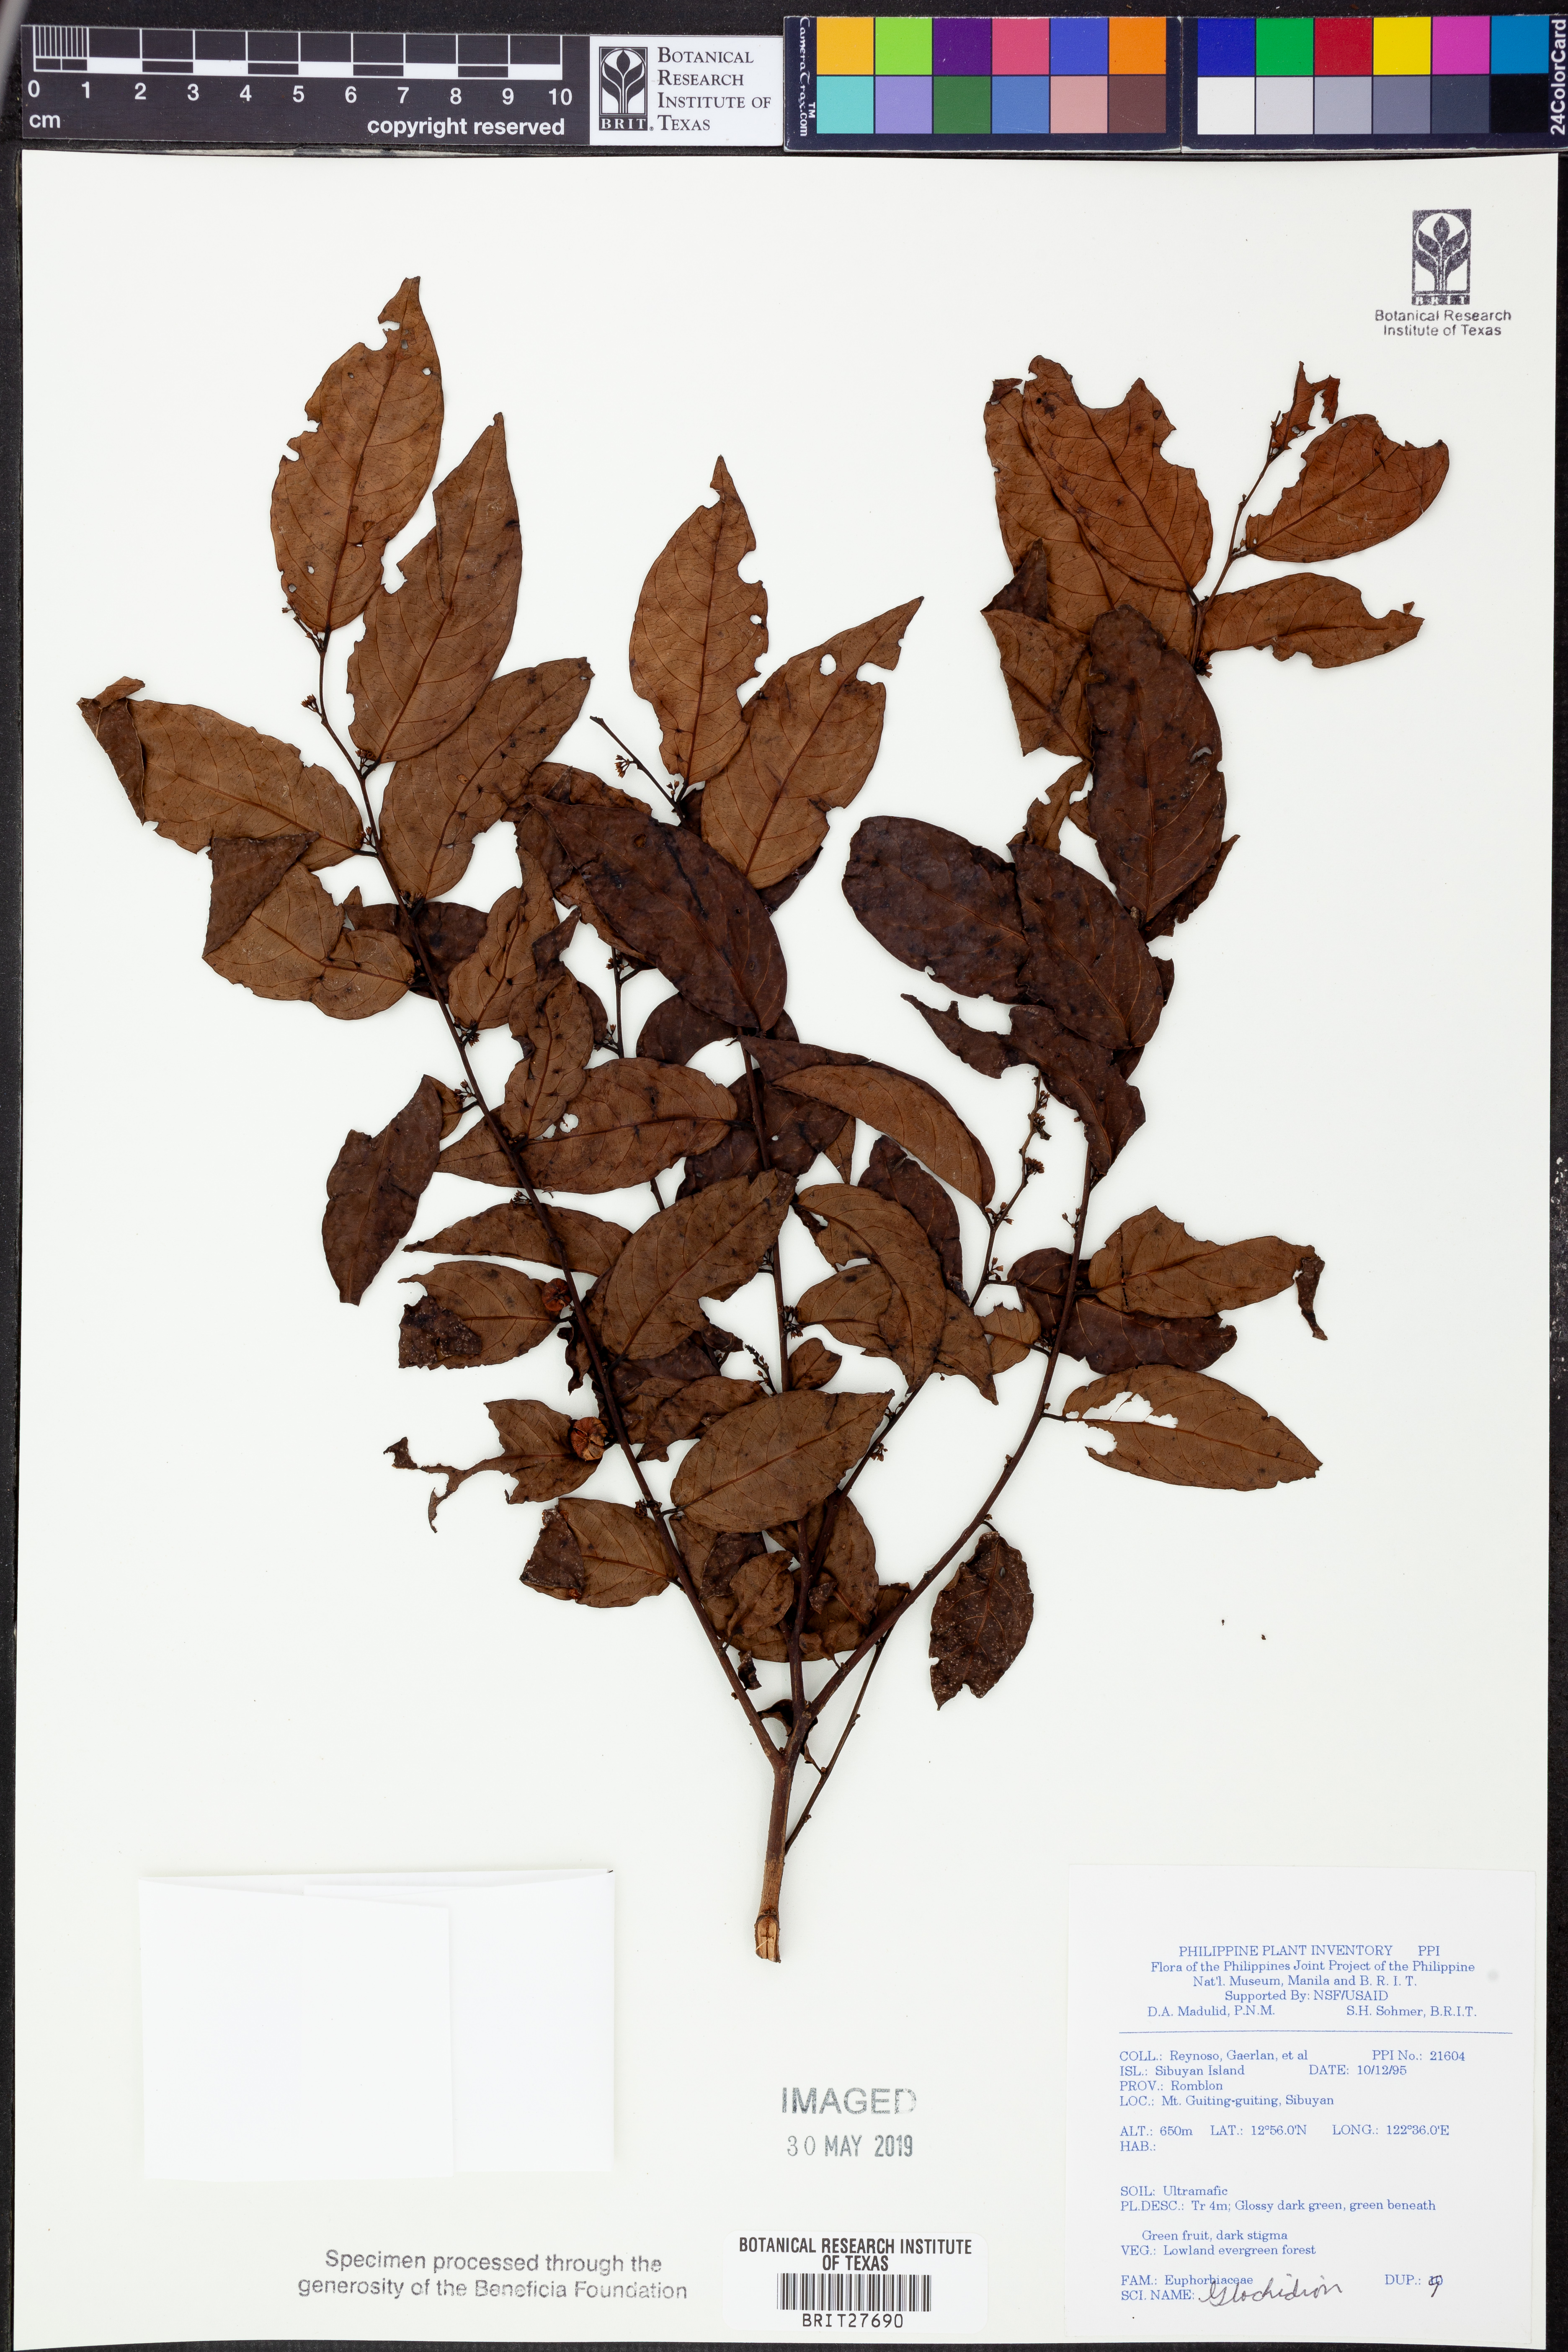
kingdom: Plantae
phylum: Tracheophyta
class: Magnoliopsida
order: Malpighiales
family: Phyllanthaceae
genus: Glochidion
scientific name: Glochidion
